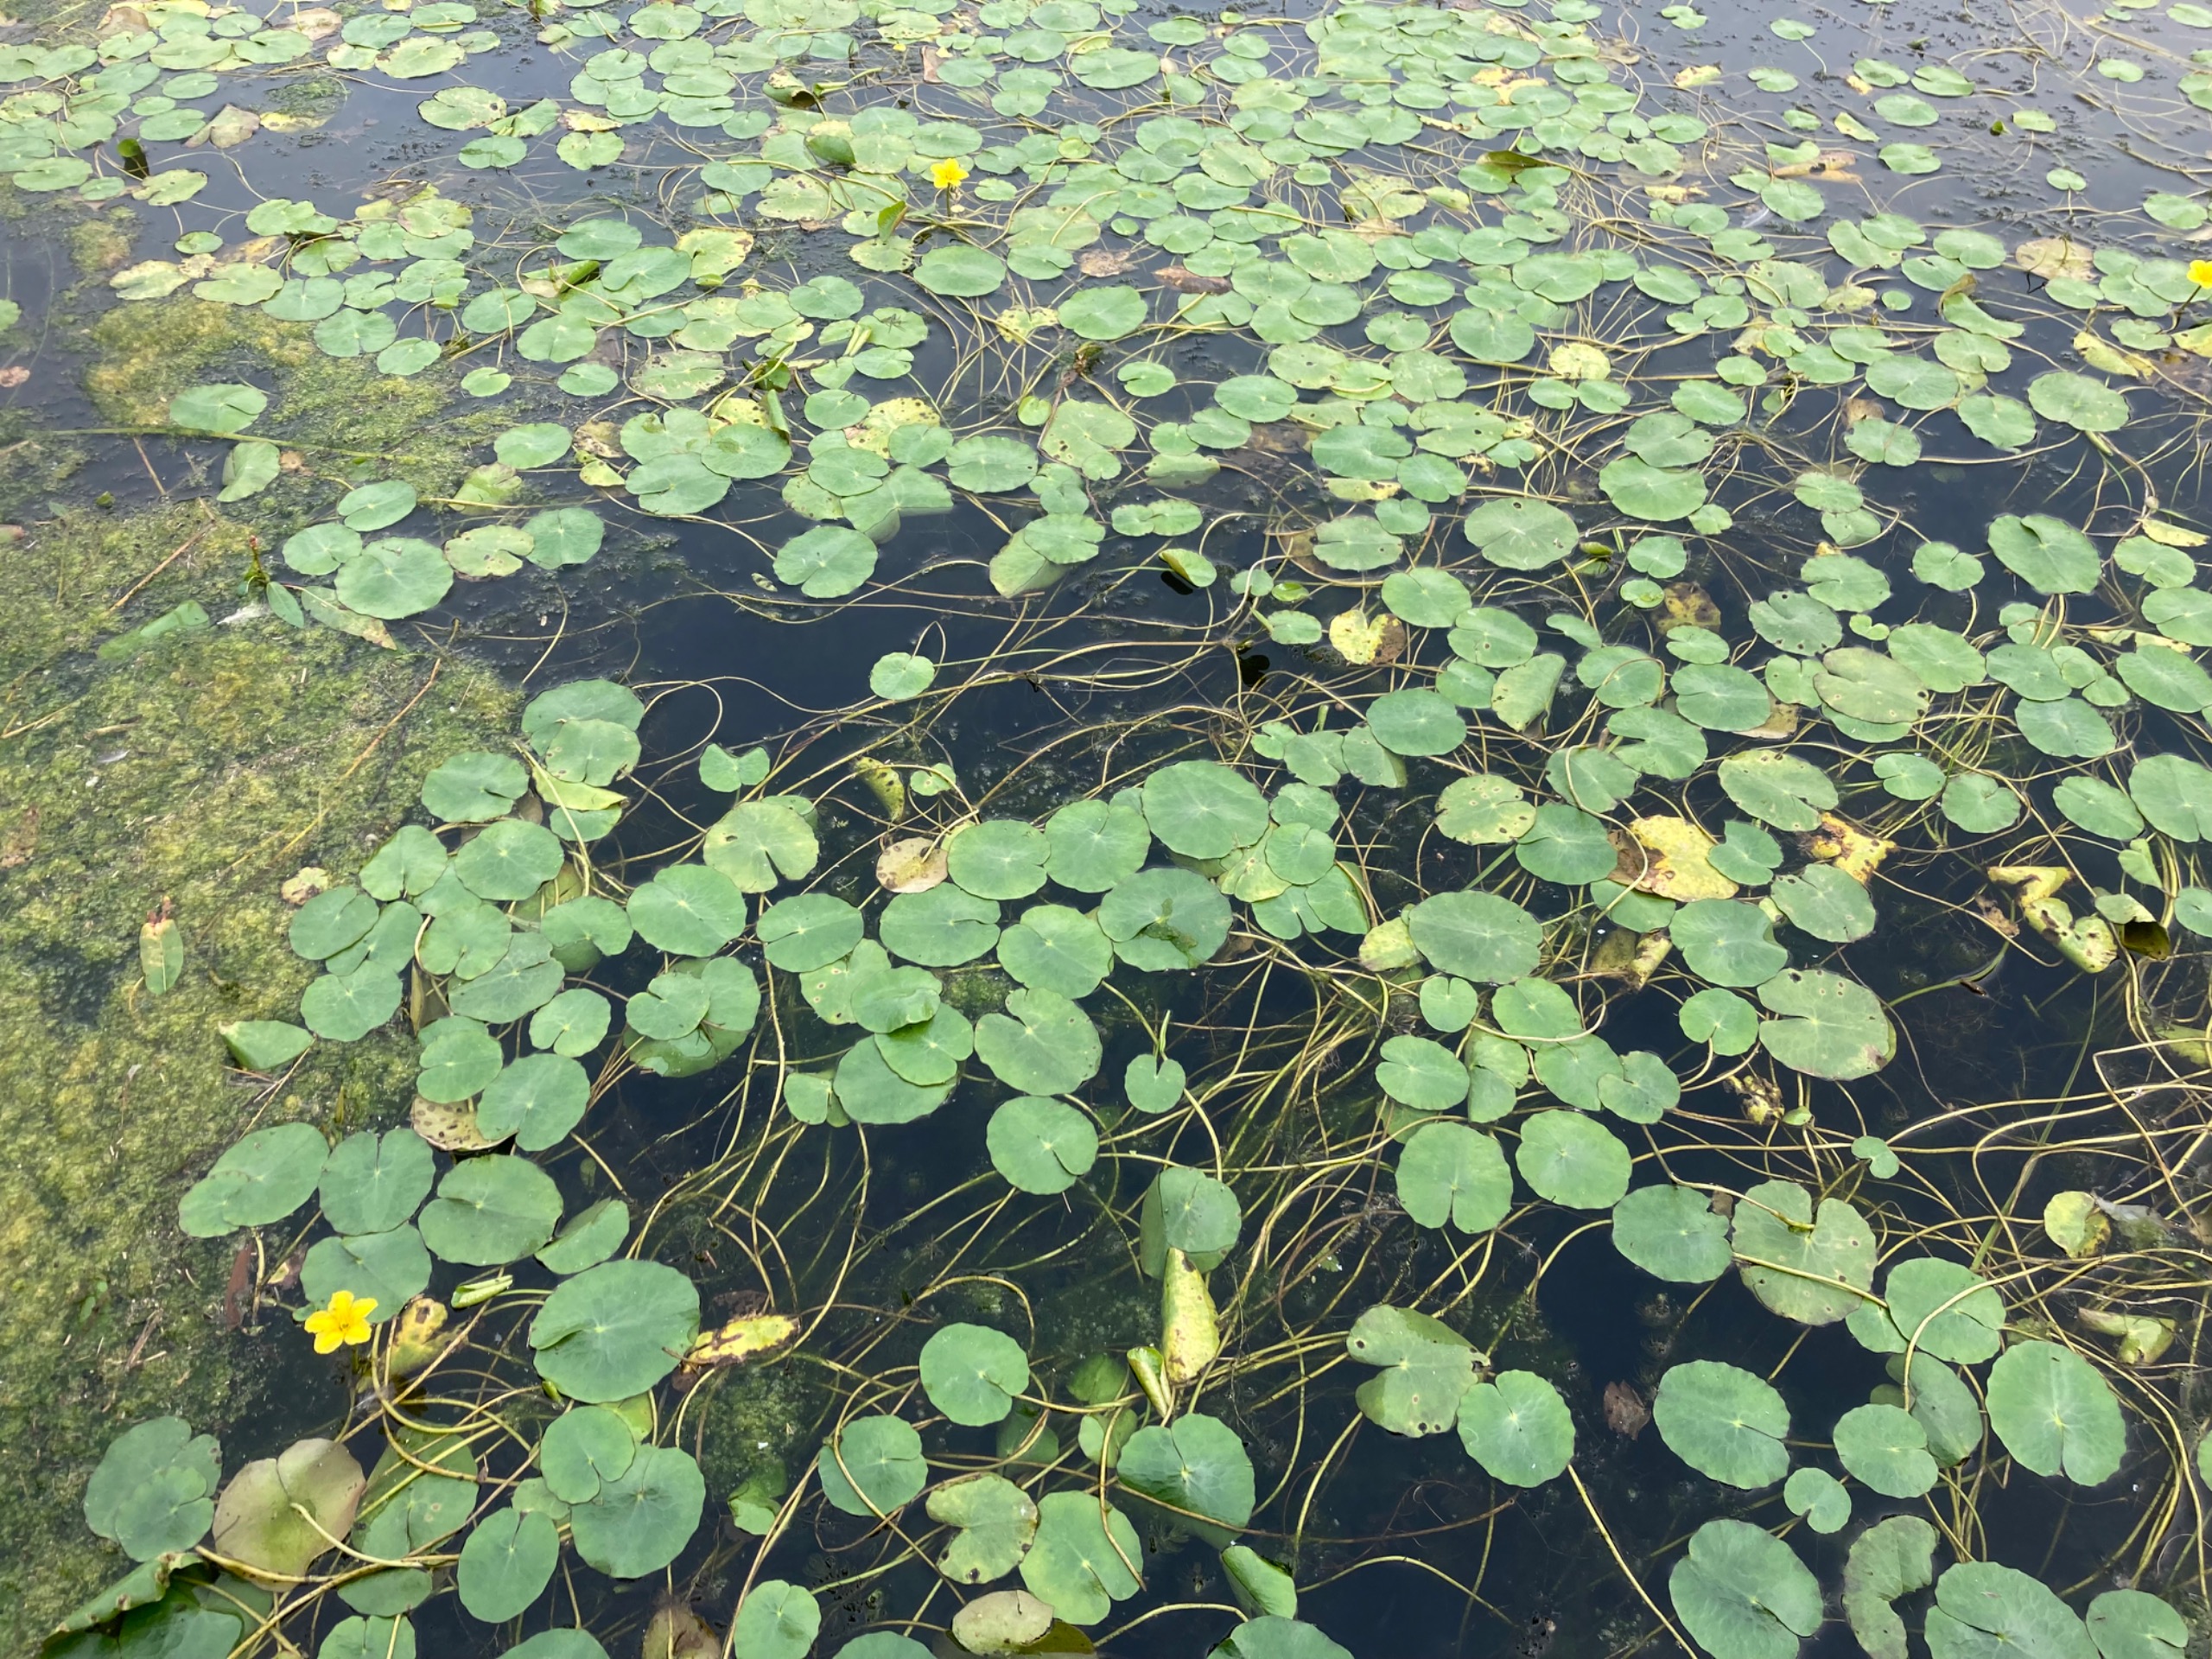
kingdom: Plantae
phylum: Tracheophyta
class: Magnoliopsida
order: Asterales
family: Menyanthaceae
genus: Nymphoides
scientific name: Nymphoides peltata
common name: Søblad
